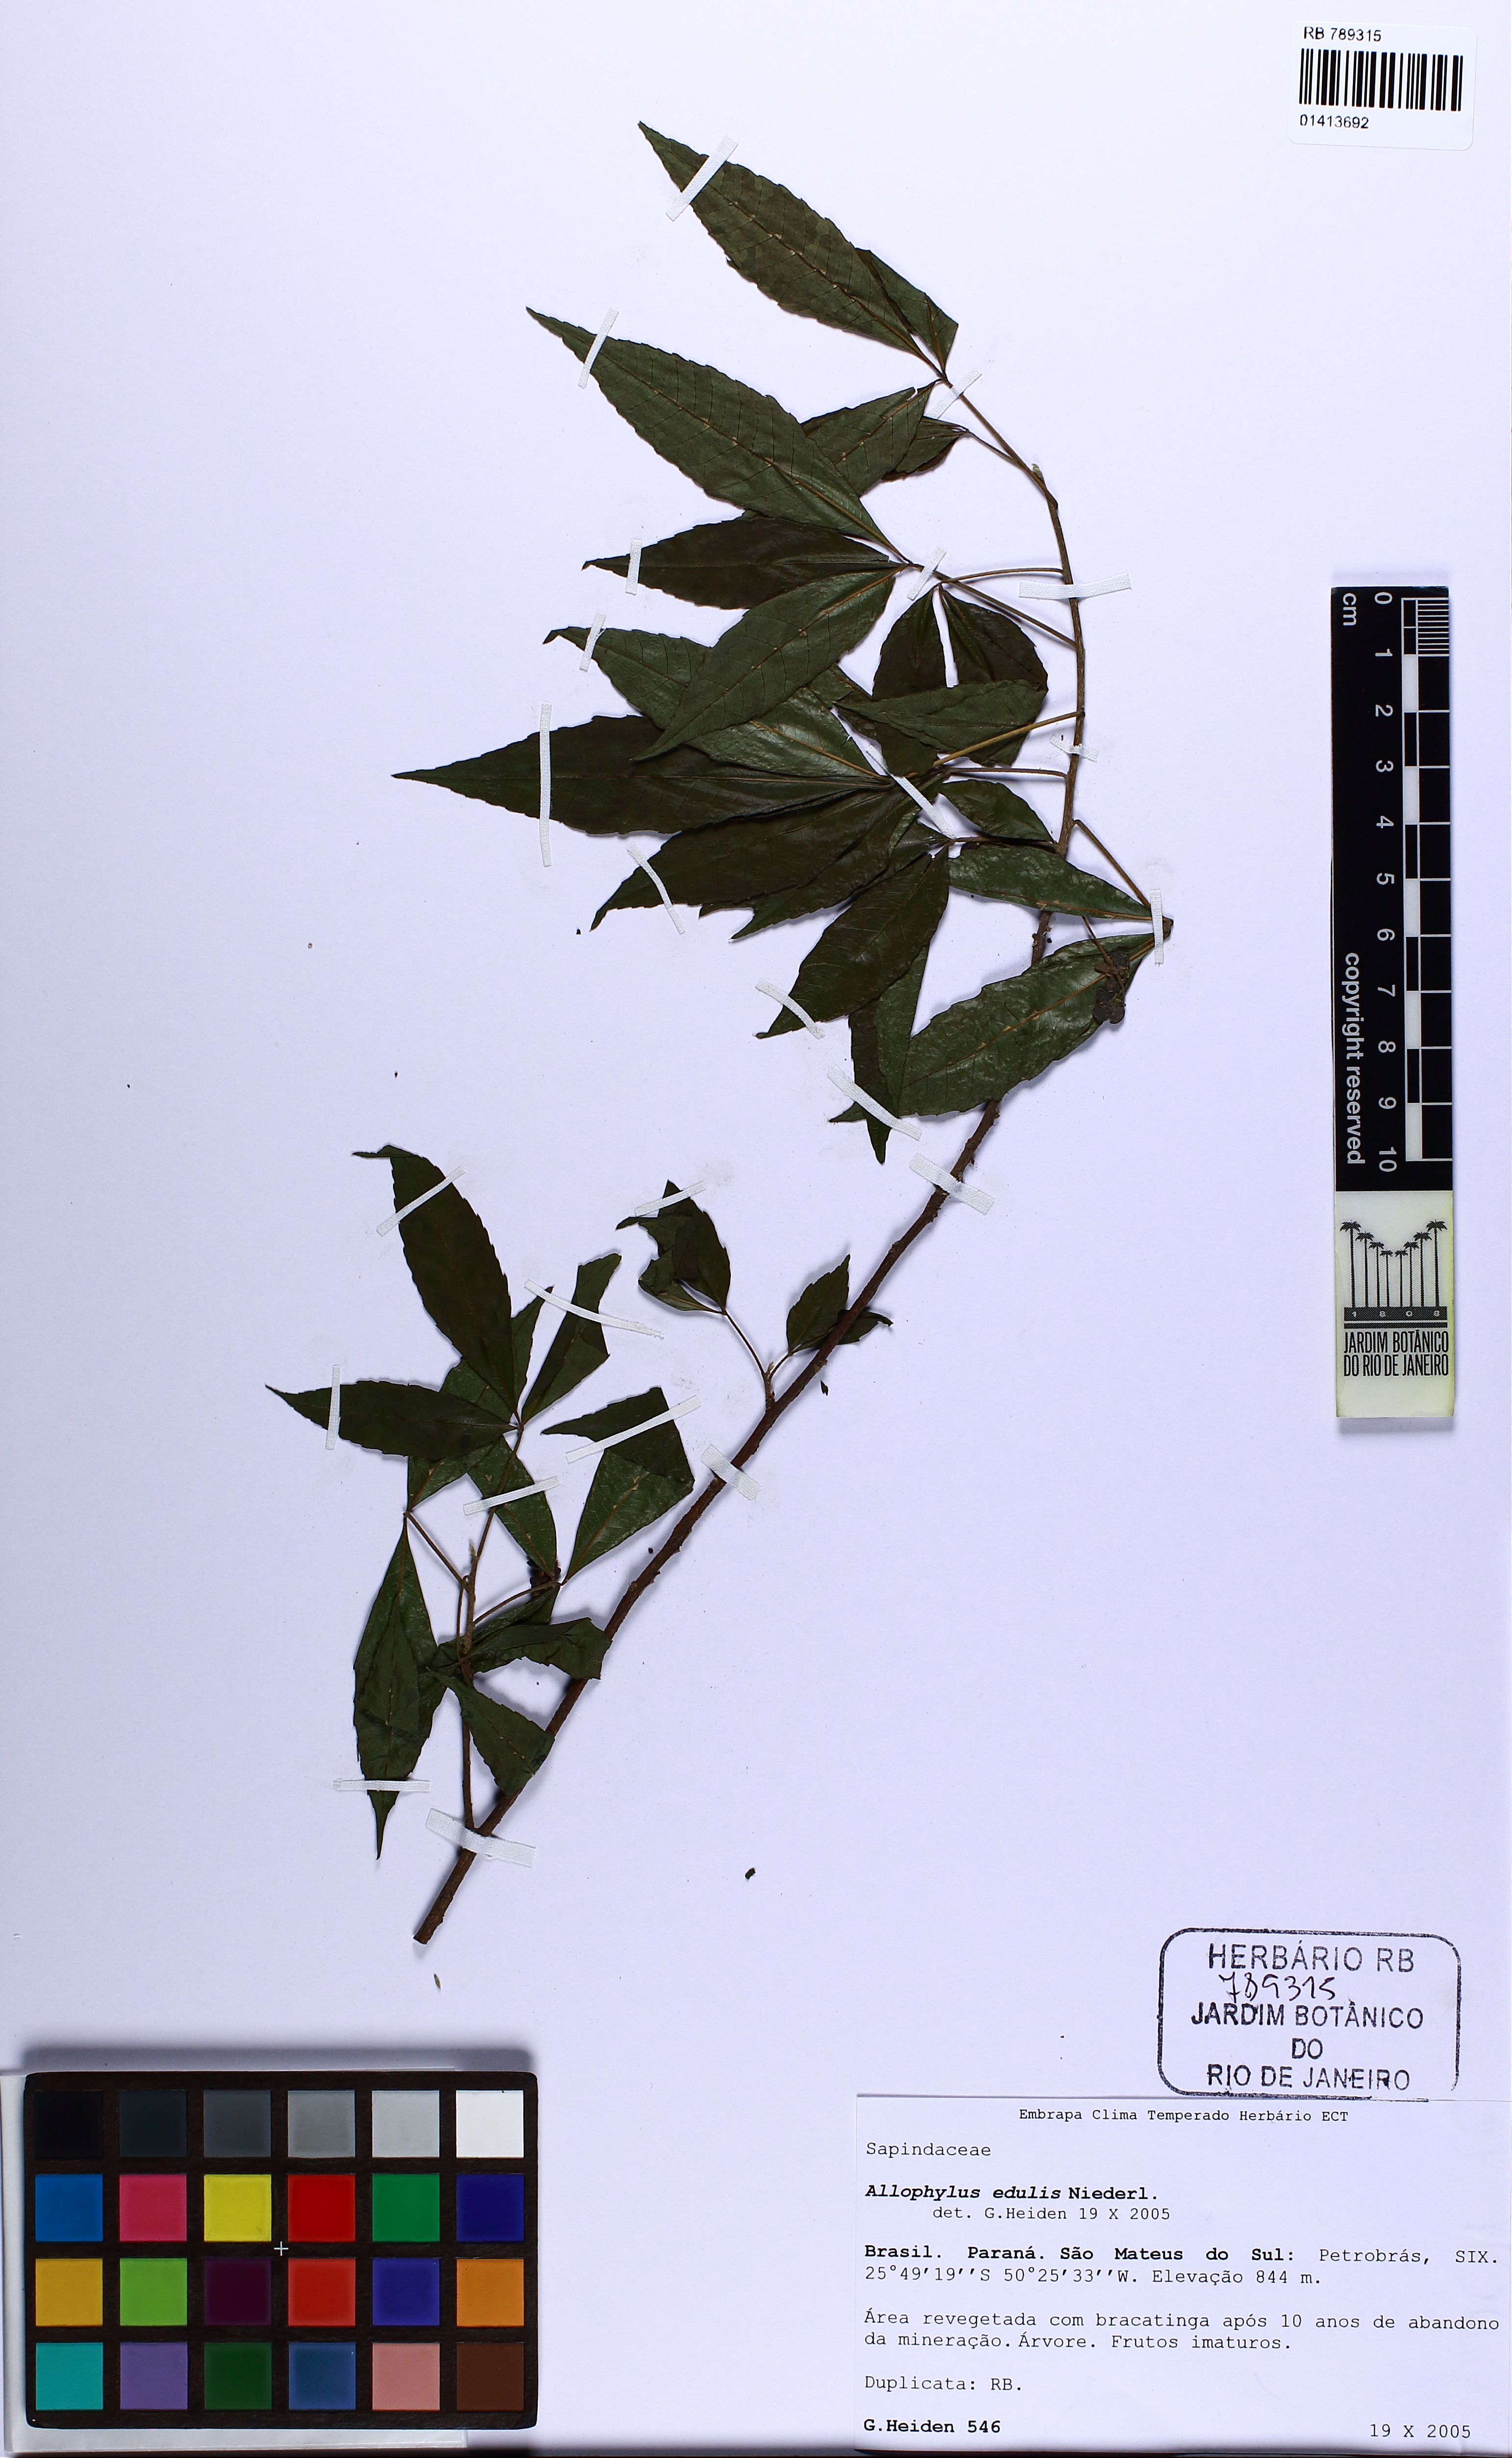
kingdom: Plantae
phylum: Tracheophyta
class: Magnoliopsida
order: Sapindales
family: Sapindaceae
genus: Allophylus
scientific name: Allophylus edulis
